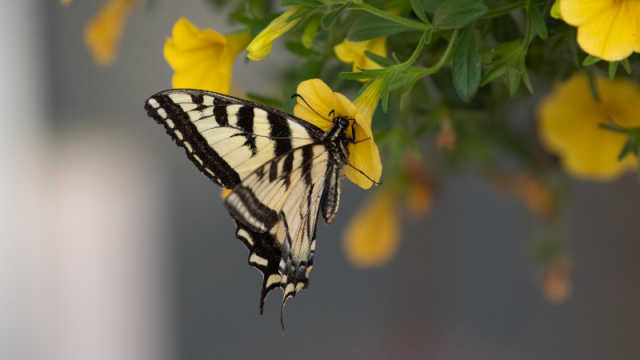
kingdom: Animalia
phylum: Arthropoda
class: Insecta
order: Lepidoptera
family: Papilionidae
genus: Pterourus
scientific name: Pterourus rutulus
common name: Western Tiger Swallowtail
